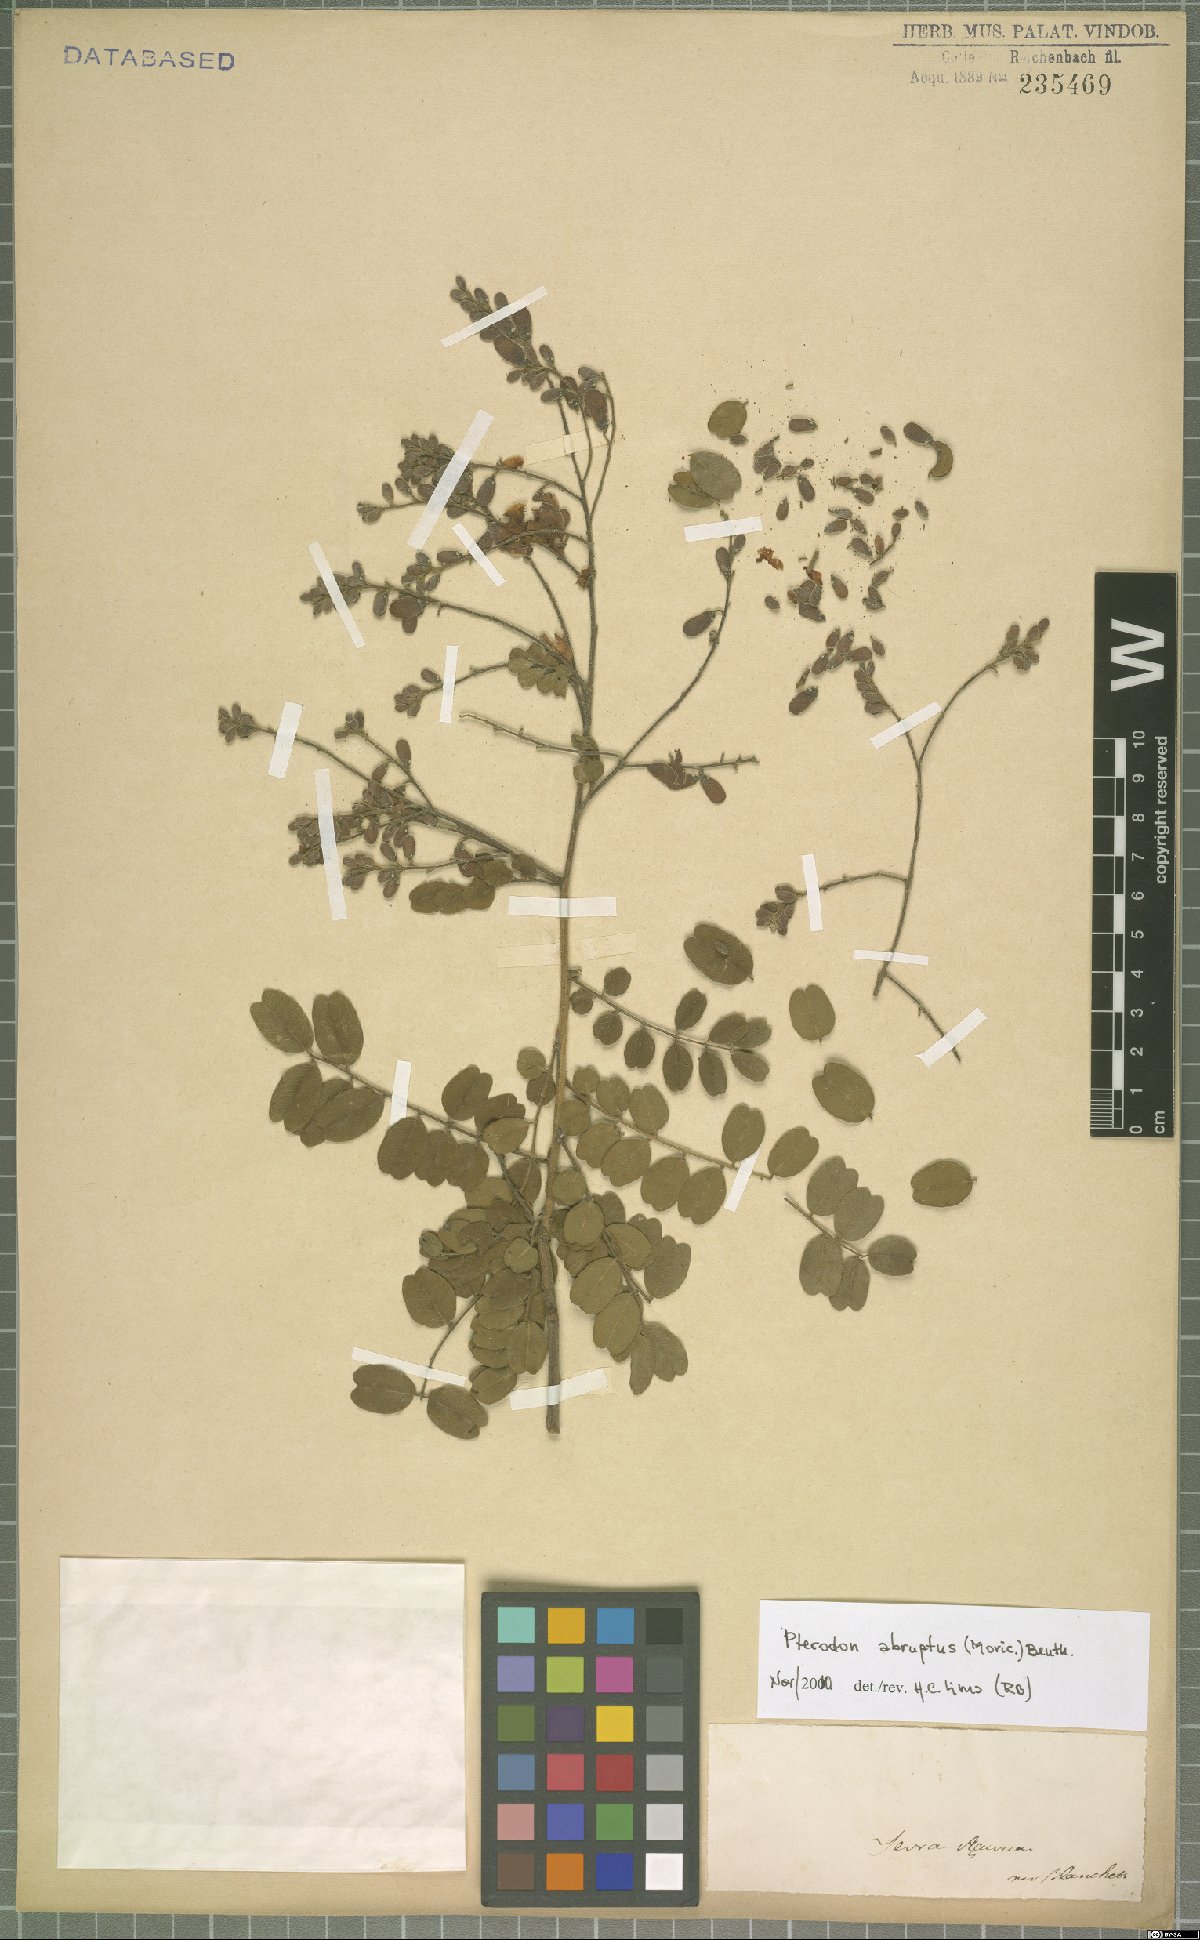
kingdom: Plantae
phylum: Tracheophyta
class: Magnoliopsida
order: Fabales
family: Fabaceae
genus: Pterodon
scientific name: Pterodon abruptus
